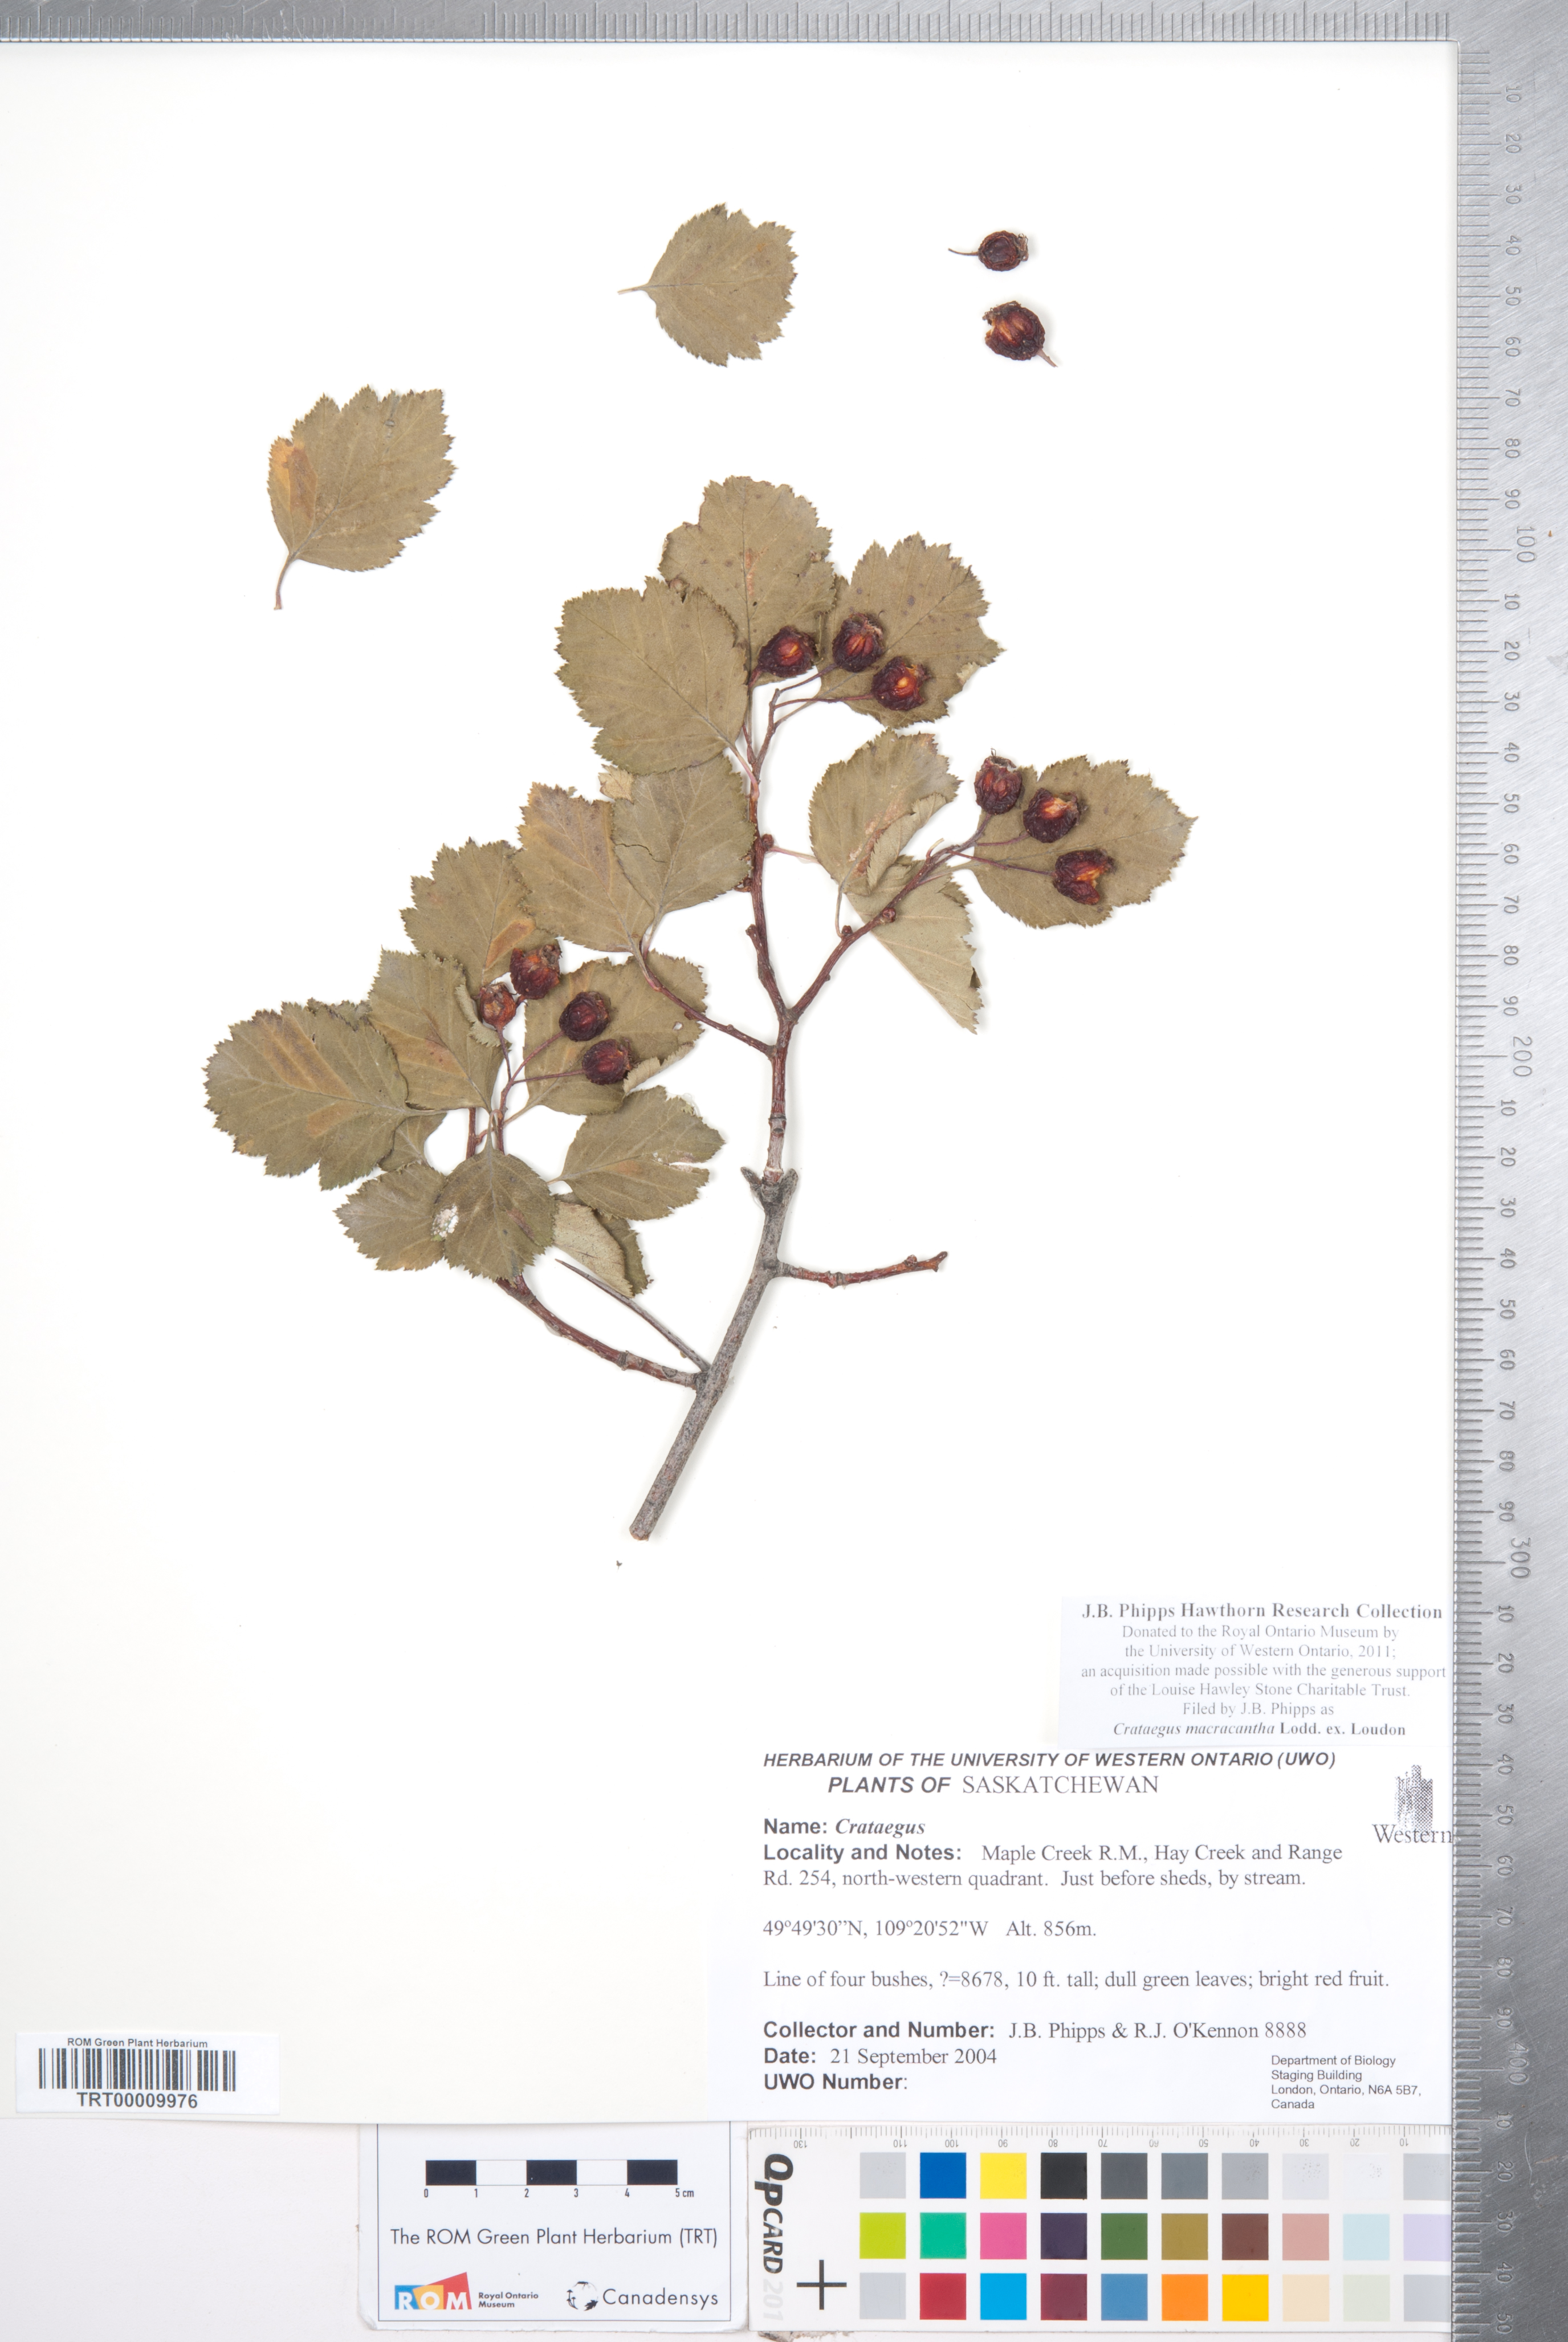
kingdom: Plantae
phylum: Tracheophyta
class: Magnoliopsida
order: Rosales
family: Rosaceae
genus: Crataegus
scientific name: Crataegus macracantha
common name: Large-thorn hawthorn
